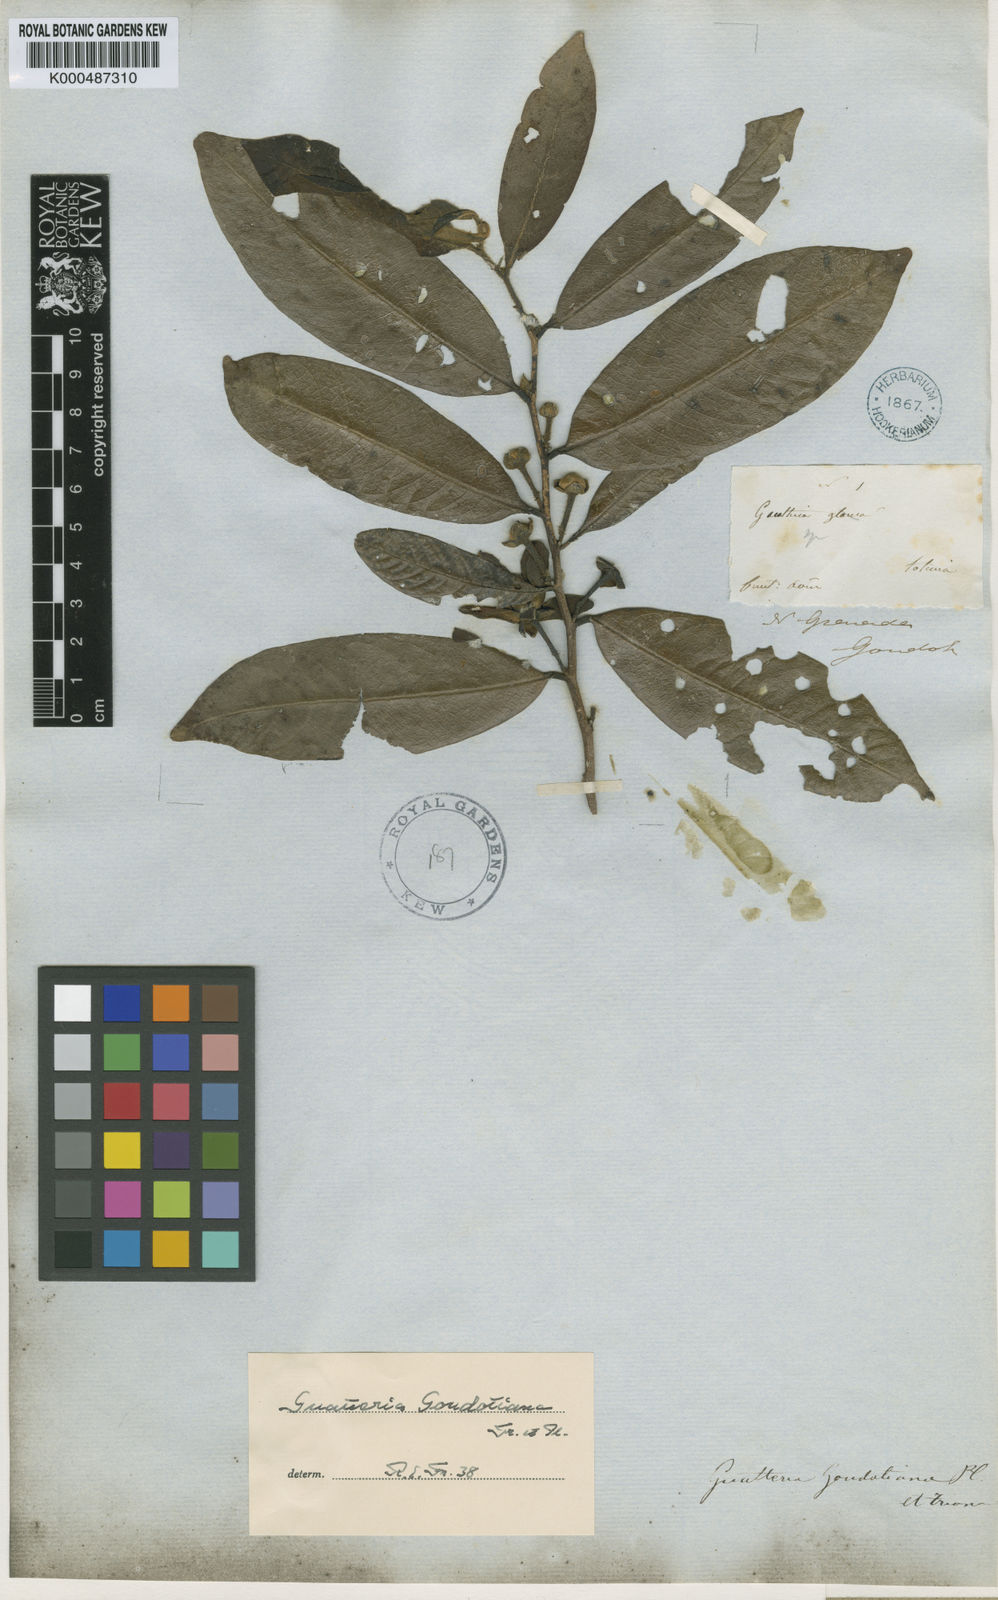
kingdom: Plantae
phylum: Tracheophyta
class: Magnoliopsida
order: Magnoliales
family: Annonaceae
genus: Guatteria
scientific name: Guatteria goudotiana
